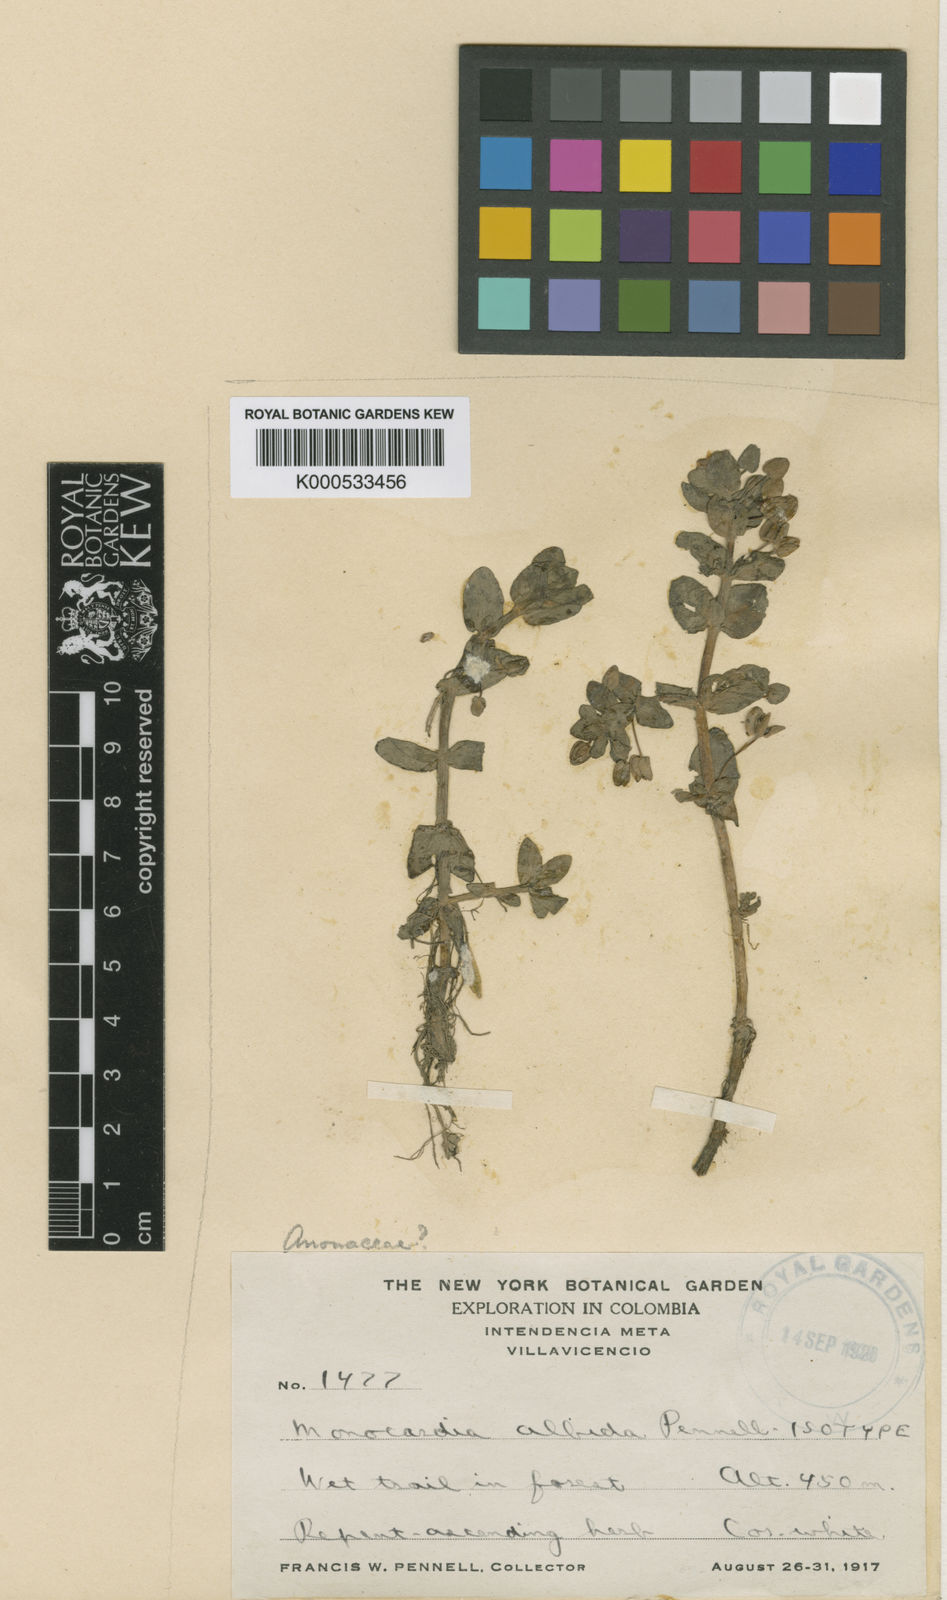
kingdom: Plantae
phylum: Tracheophyta
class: Magnoliopsida
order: Lamiales
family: Plantaginaceae
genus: Bacopa
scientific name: Bacopa albida
